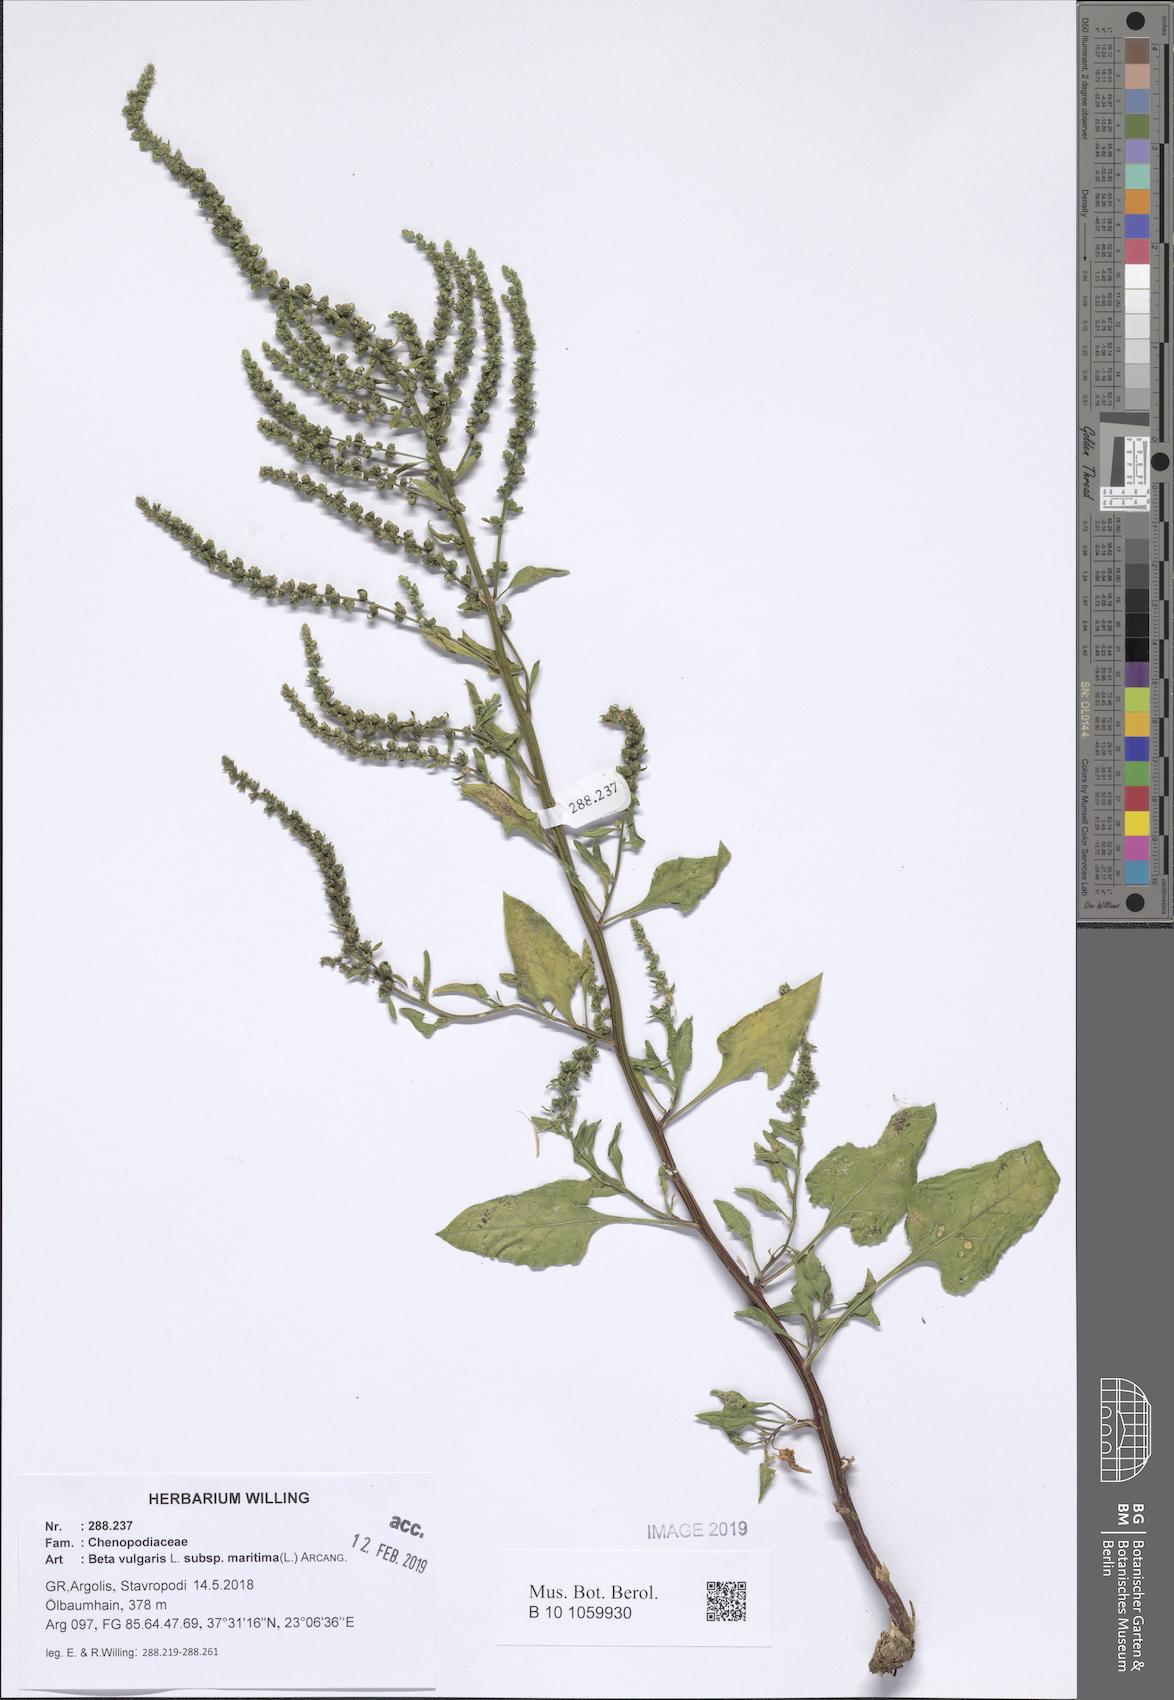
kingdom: Plantae
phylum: Tracheophyta
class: Magnoliopsida
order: Caryophyllales
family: Amaranthaceae
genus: Beta
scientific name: Beta maritima
